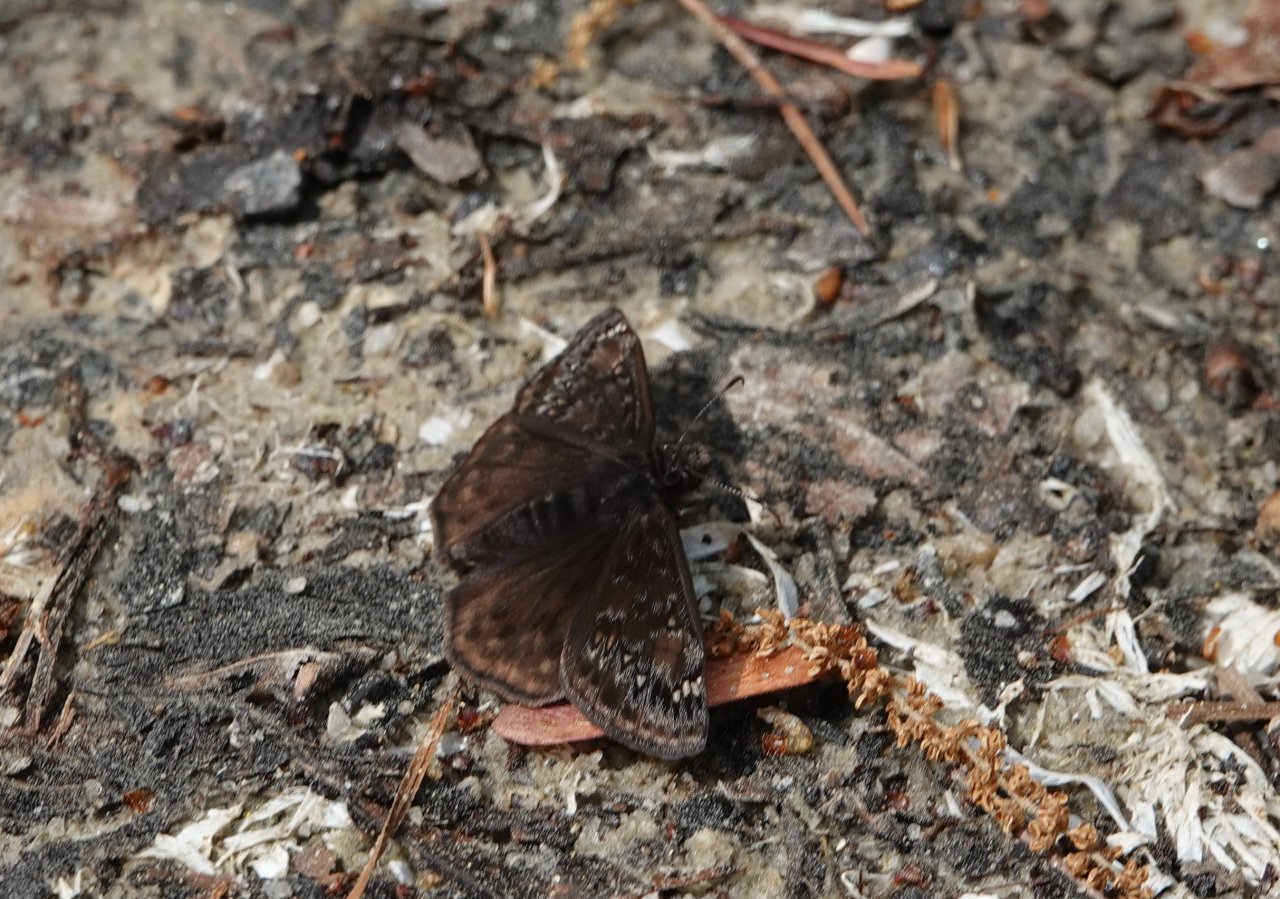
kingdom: Animalia
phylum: Arthropoda
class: Insecta
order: Lepidoptera
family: Hesperiidae
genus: Gesta
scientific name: Gesta
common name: Juvenal's Duskywing
